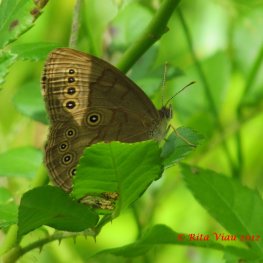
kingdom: Animalia
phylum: Arthropoda
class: Insecta
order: Lepidoptera
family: Nymphalidae
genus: Lethe
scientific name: Lethe eurydice
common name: Eyed Brown
